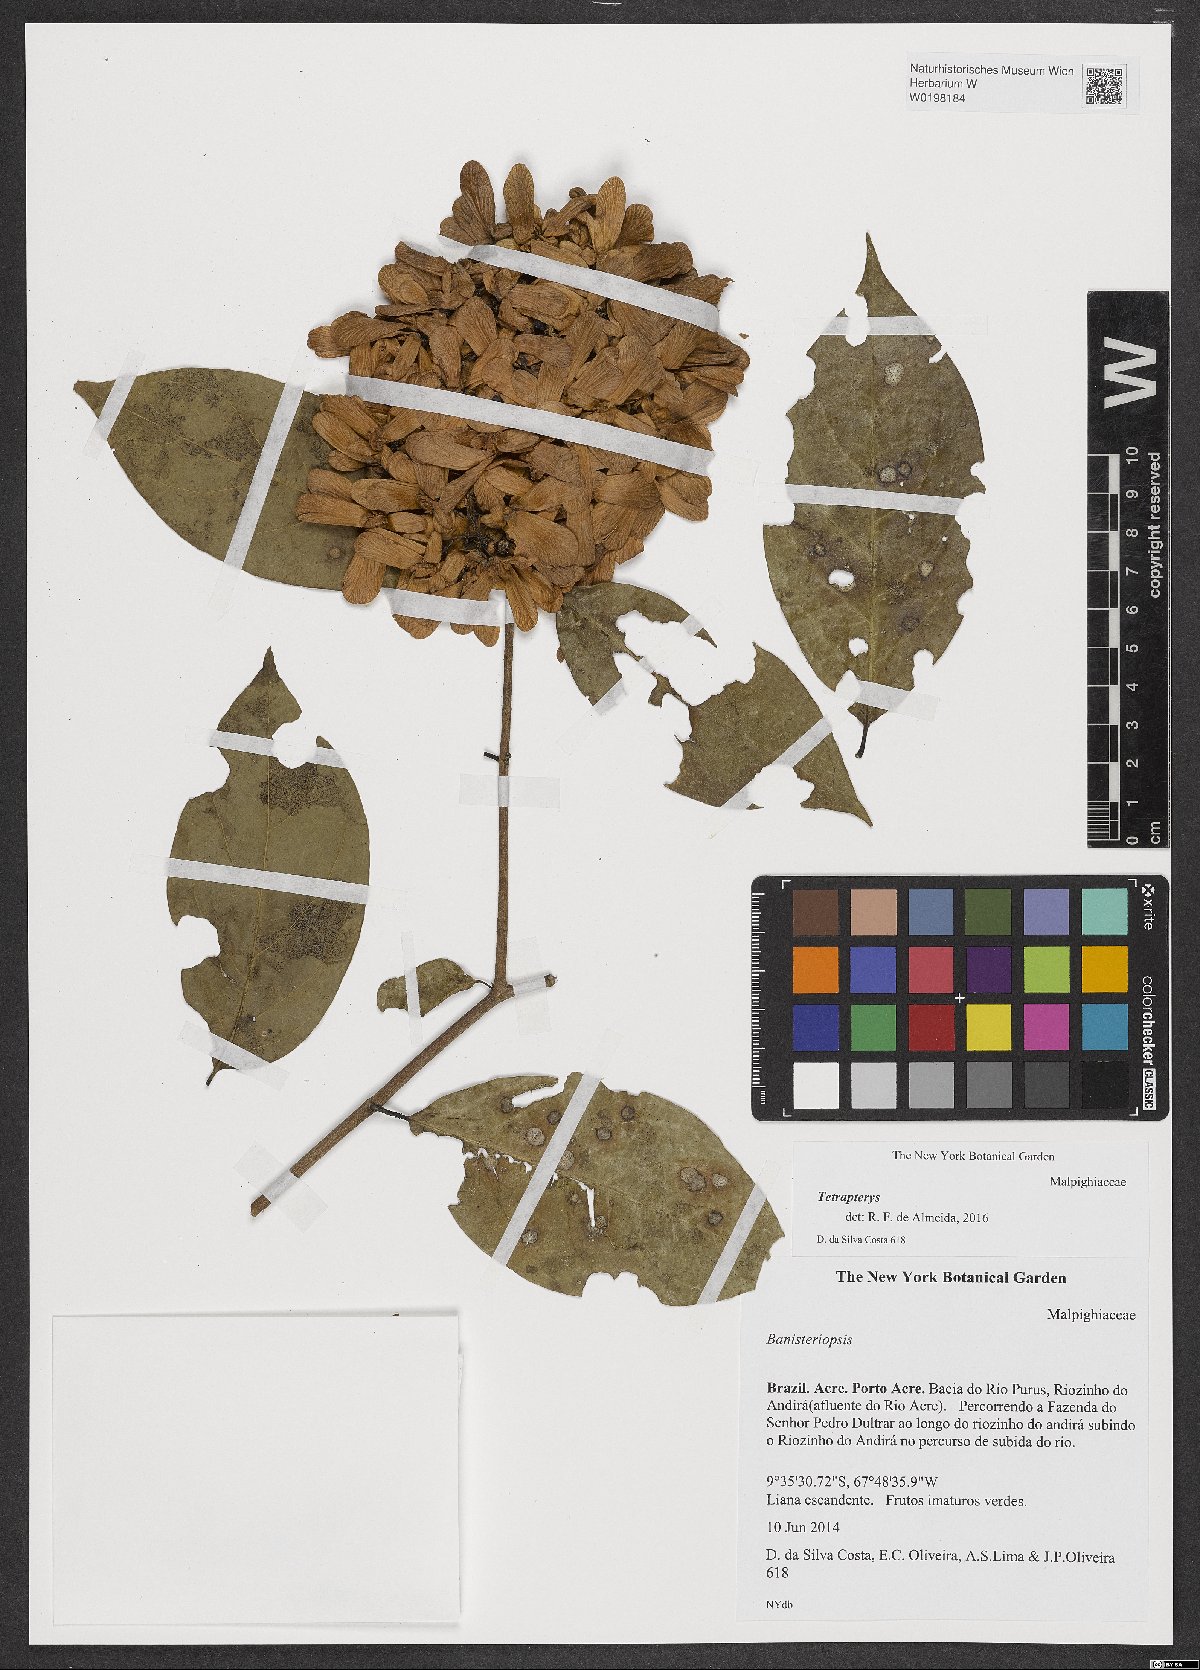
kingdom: Plantae
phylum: Tracheophyta
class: Magnoliopsida
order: Malpighiales
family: Malpighiaceae
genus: Tetrapterys
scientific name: Tetrapterys
